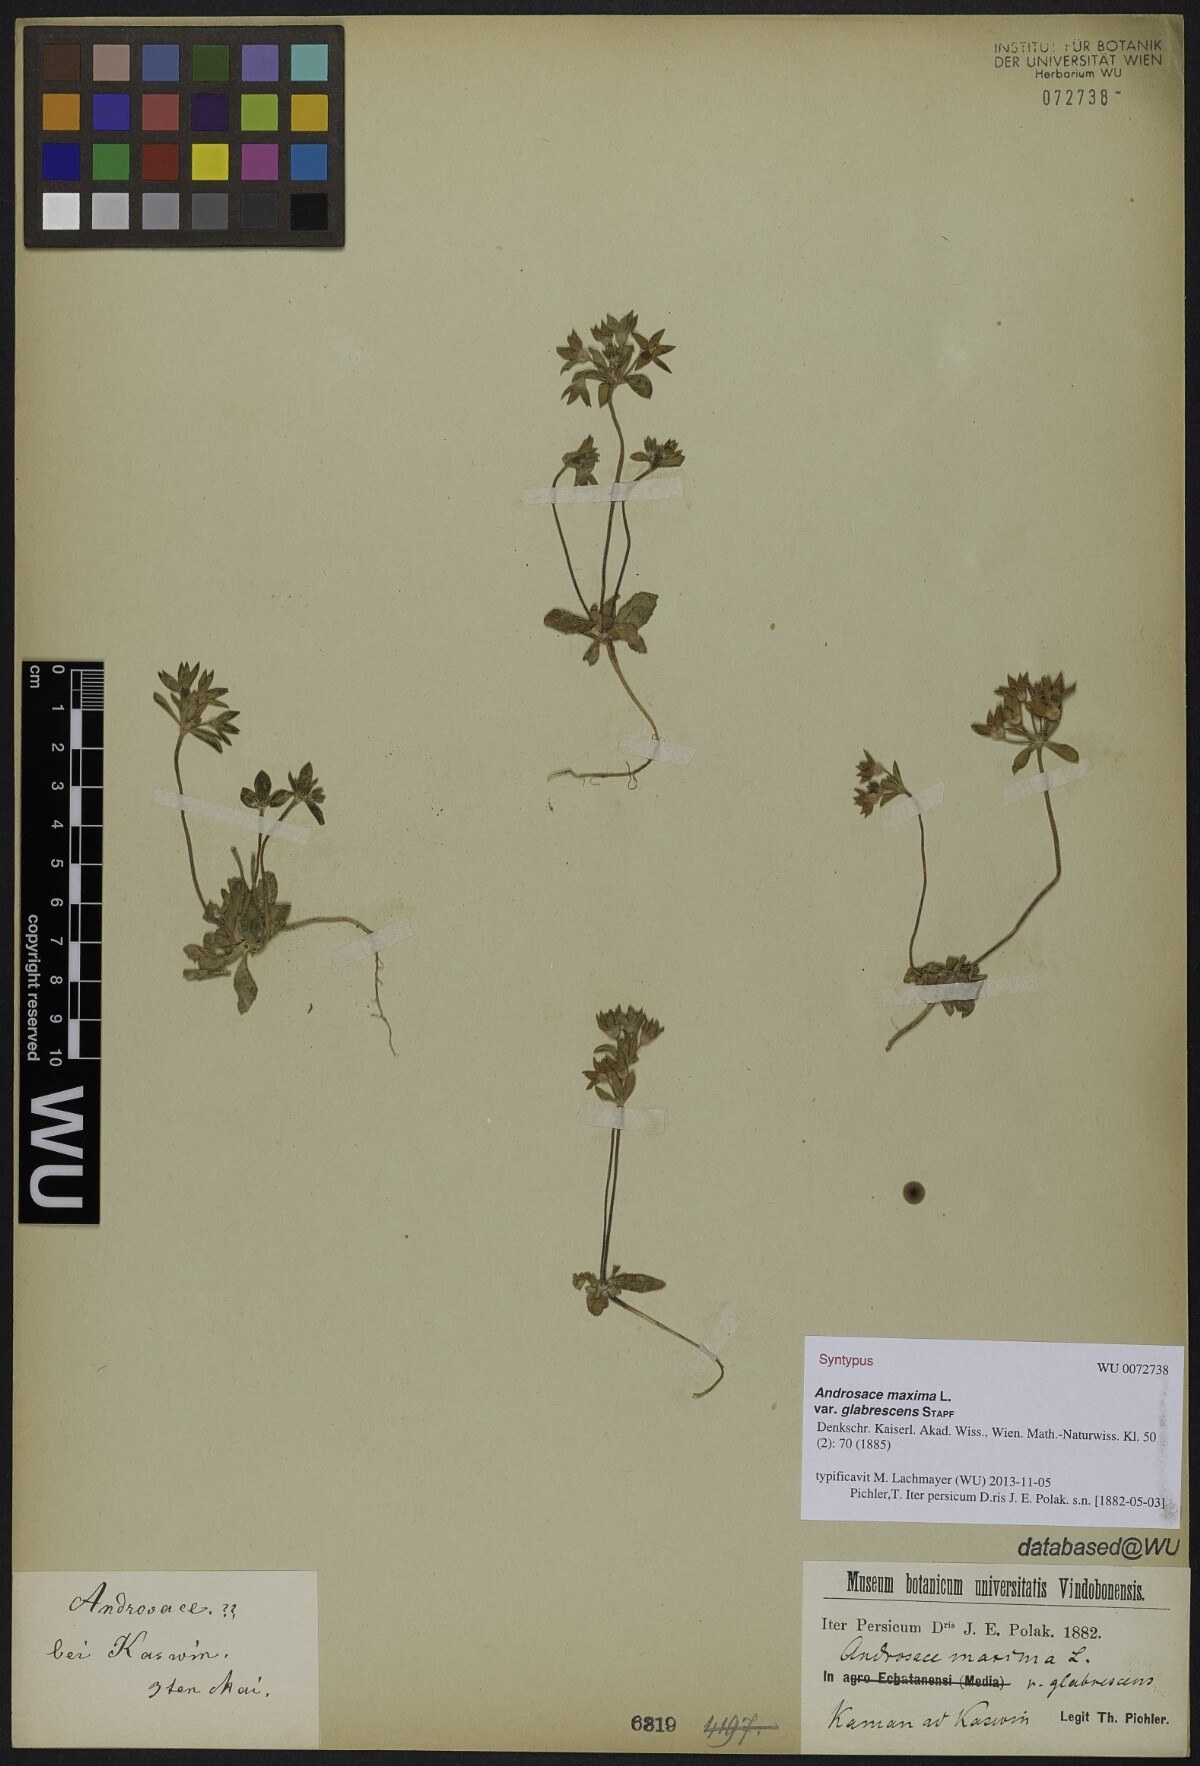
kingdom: Plantae
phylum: Tracheophyta
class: Magnoliopsida
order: Ericales
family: Primulaceae
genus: Androsace
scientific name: Androsace maxima
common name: Annual androsace
